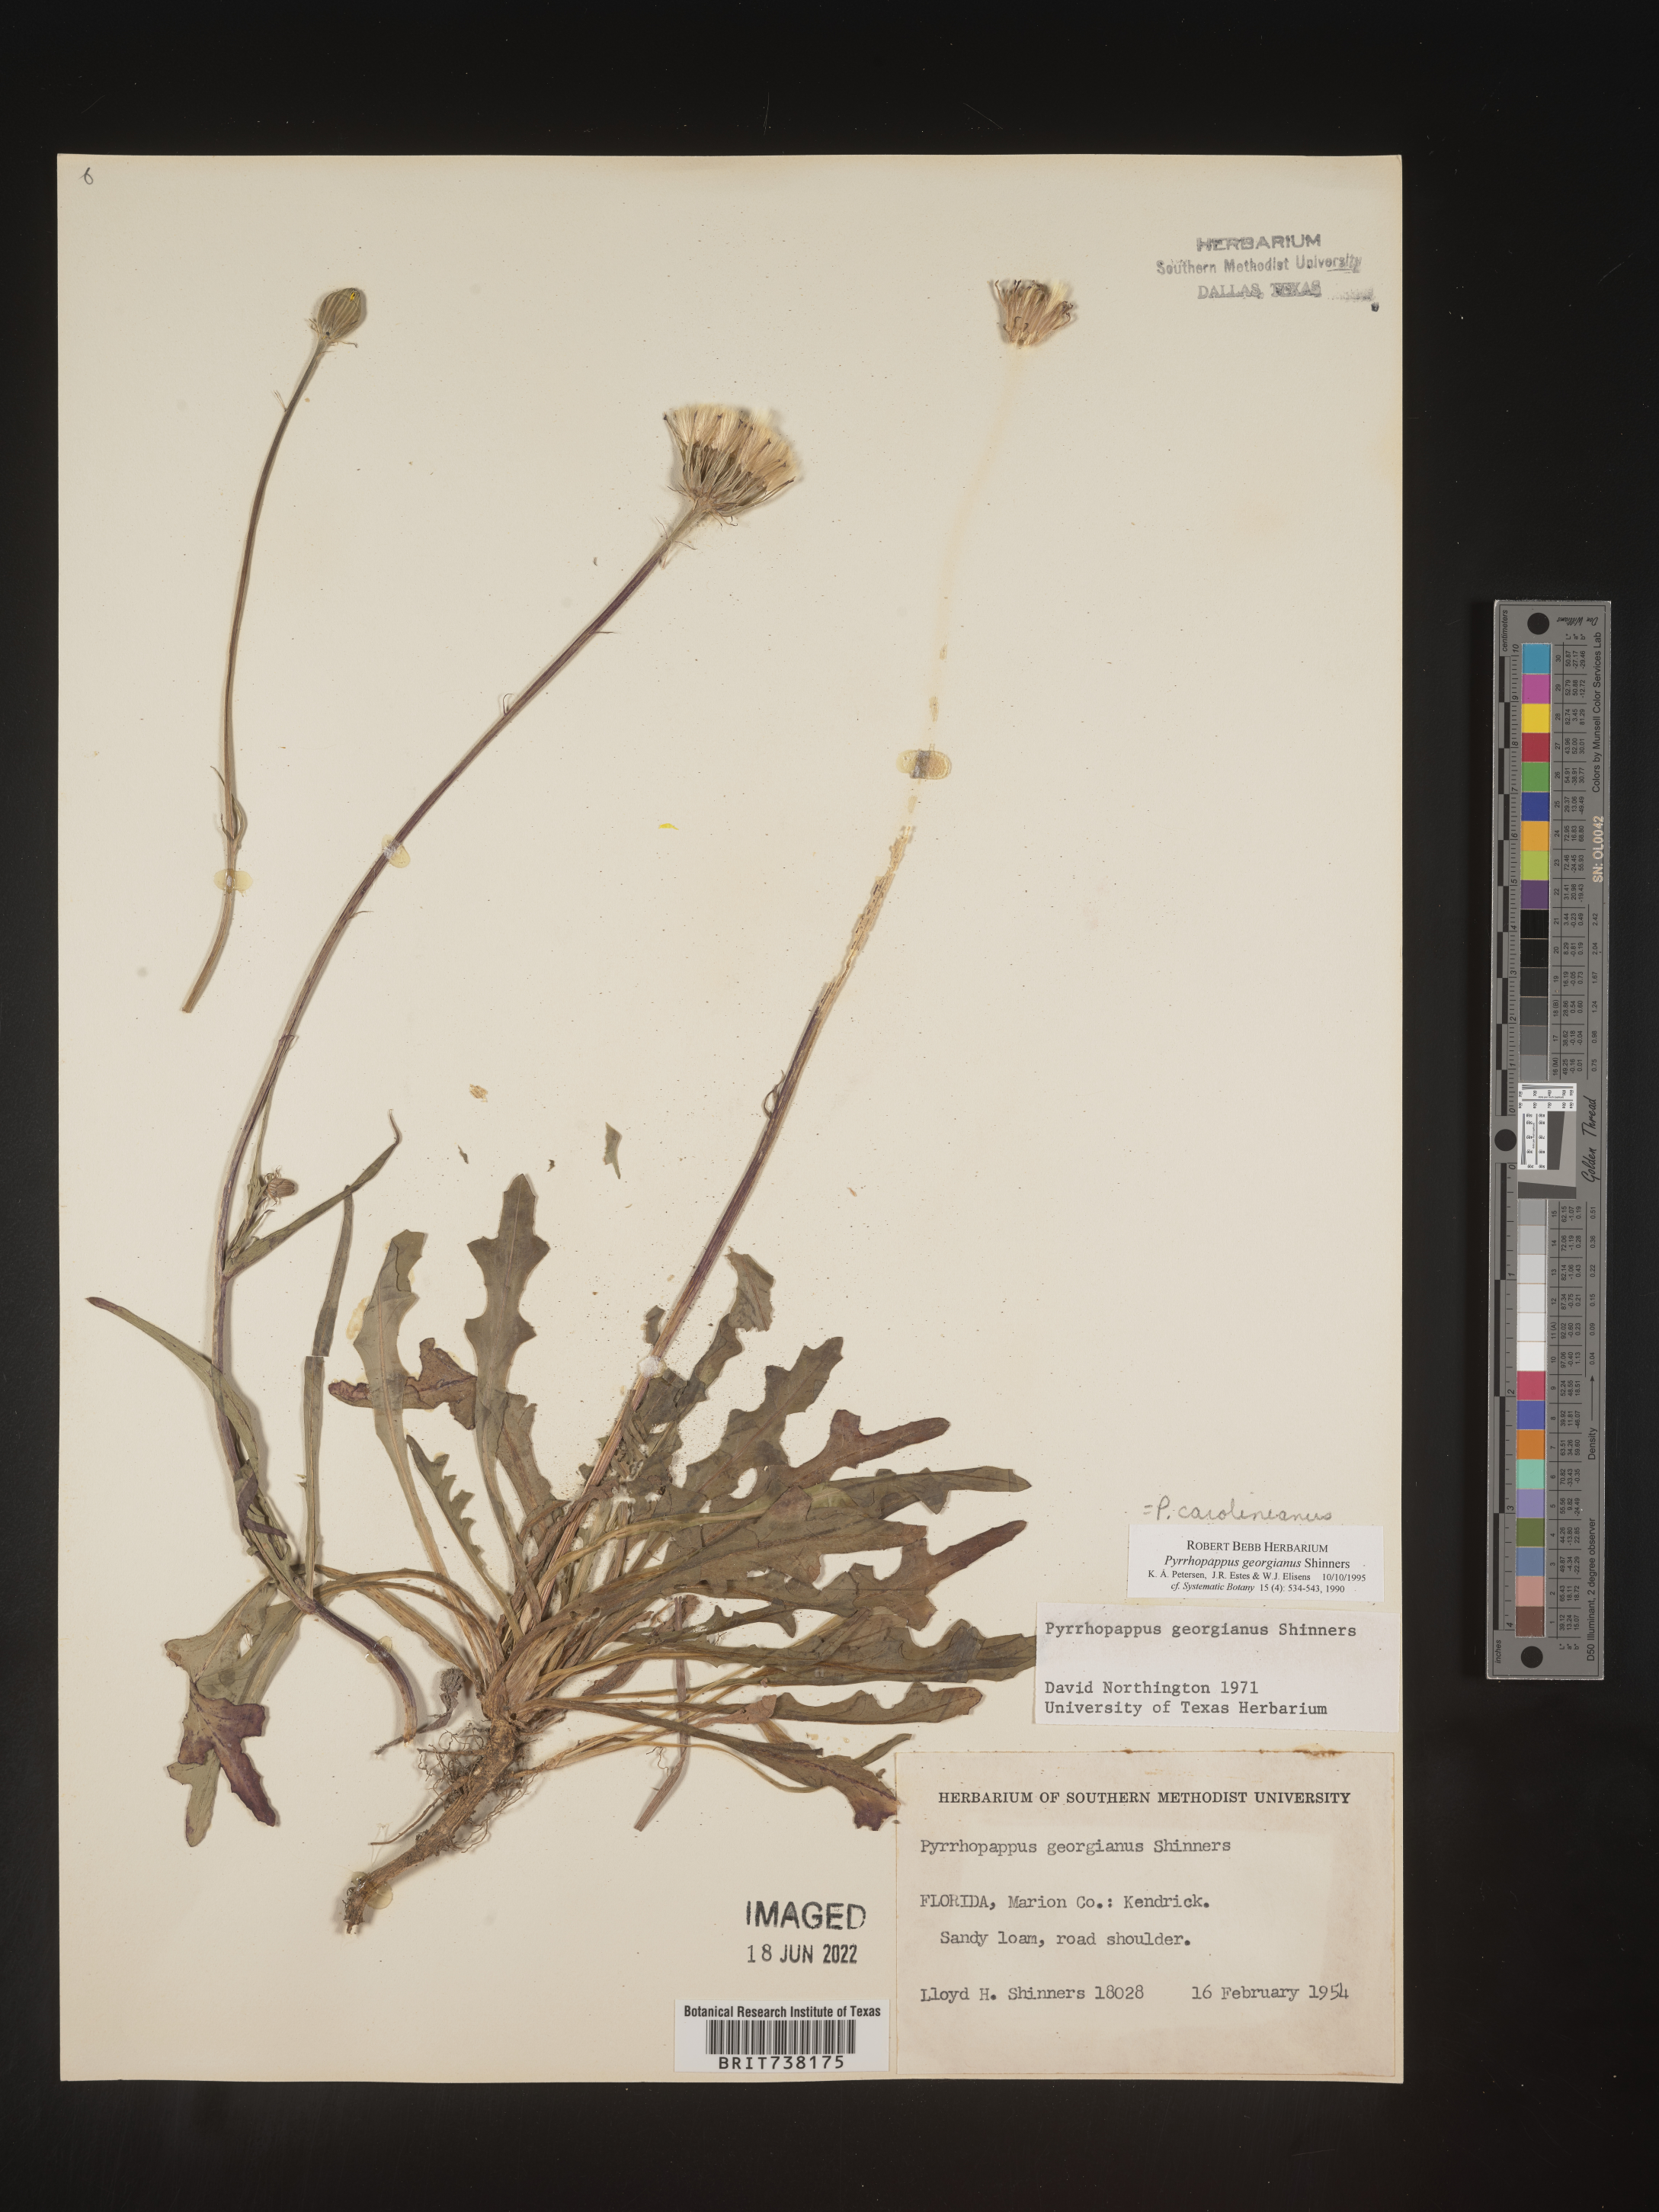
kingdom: Plantae
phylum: Tracheophyta
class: Magnoliopsida
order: Asterales
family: Asteraceae
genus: Pyrrhopappus
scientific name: Pyrrhopappus carolinianus
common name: Carolina desert-chicory
